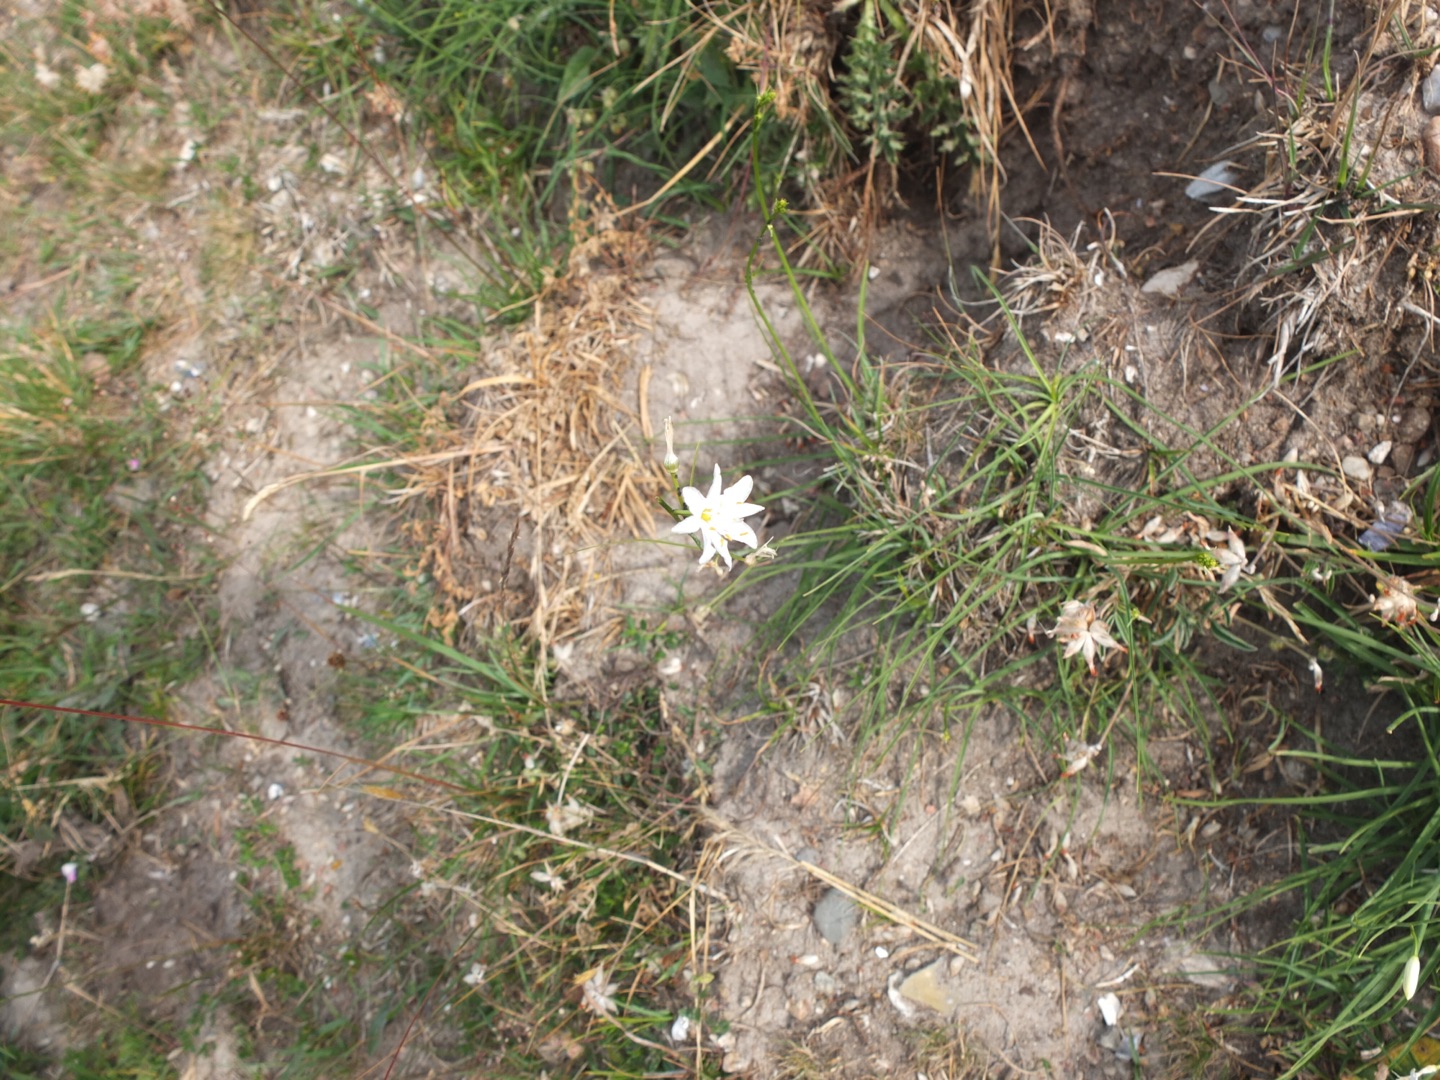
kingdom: Plantae
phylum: Tracheophyta
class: Liliopsida
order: Asparagales
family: Asparagaceae
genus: Anthericum
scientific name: Anthericum ramosum
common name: Grenet edderkopurt
